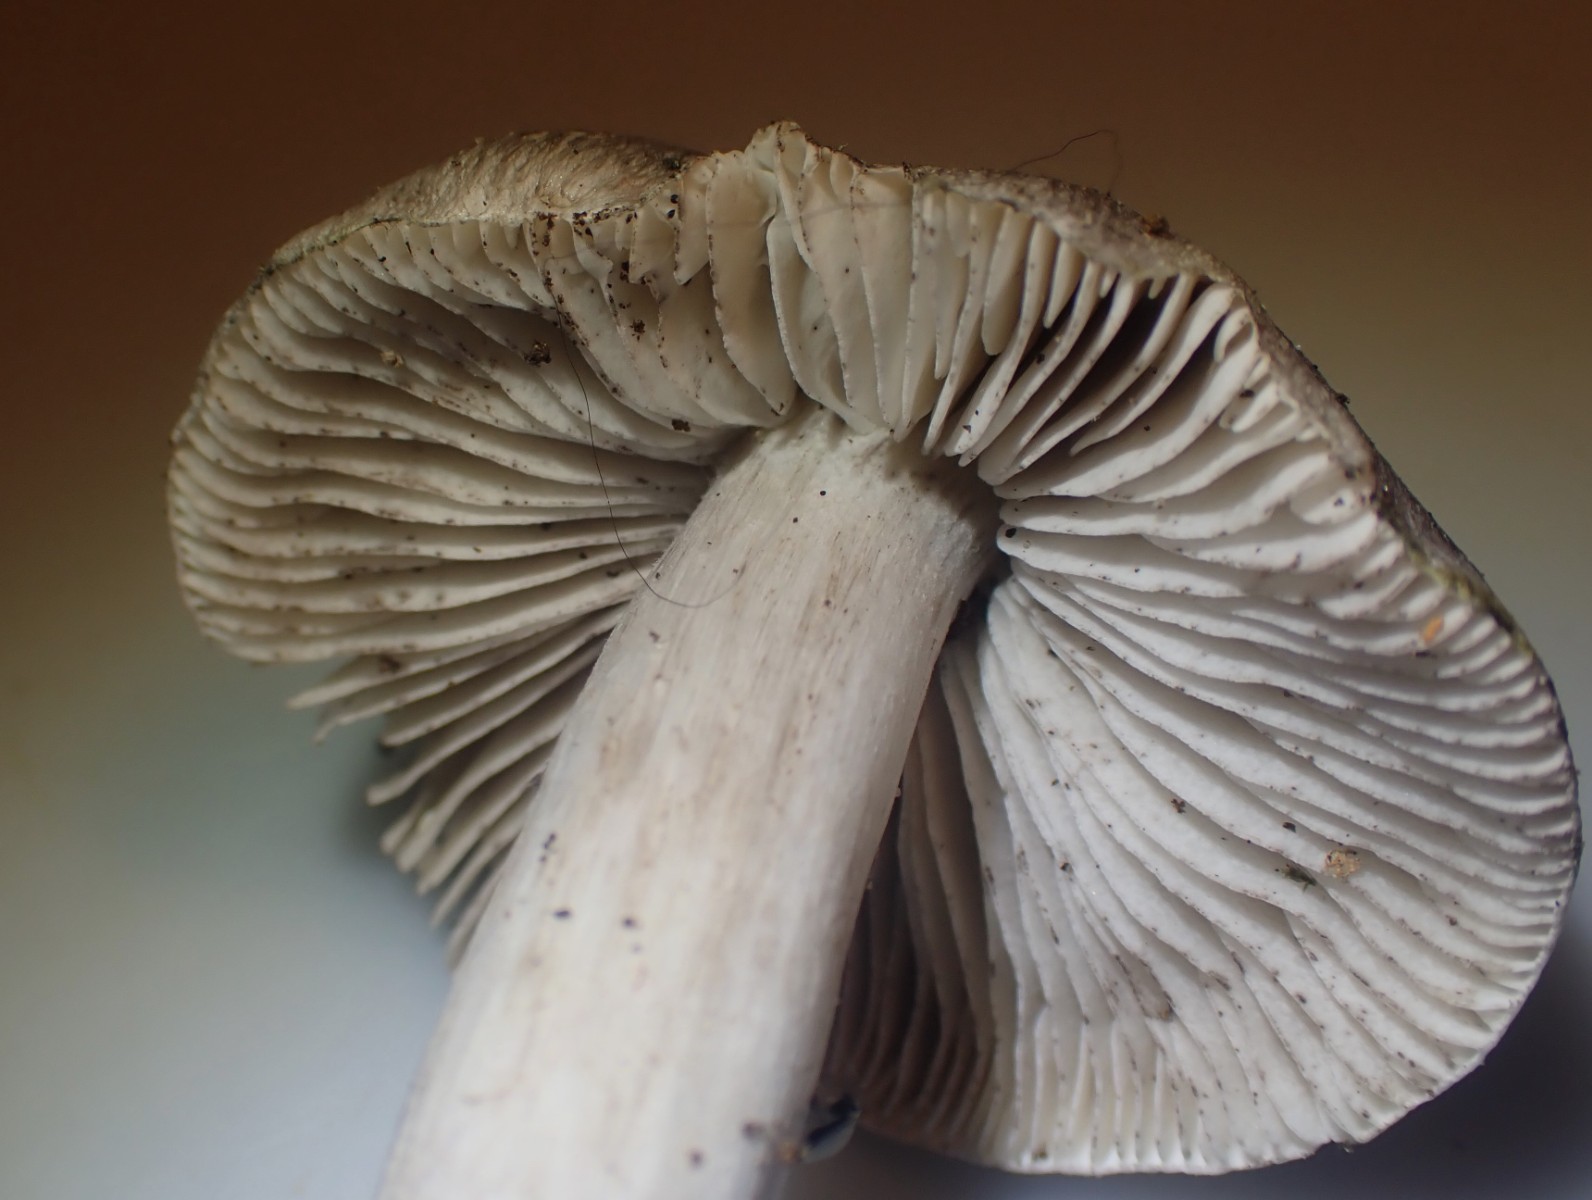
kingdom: Fungi
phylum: Basidiomycota
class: Agaricomycetes
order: Agaricales
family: Tricholomataceae
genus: Tricholoma
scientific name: Tricholoma sciodes
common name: stribet ridderhat
